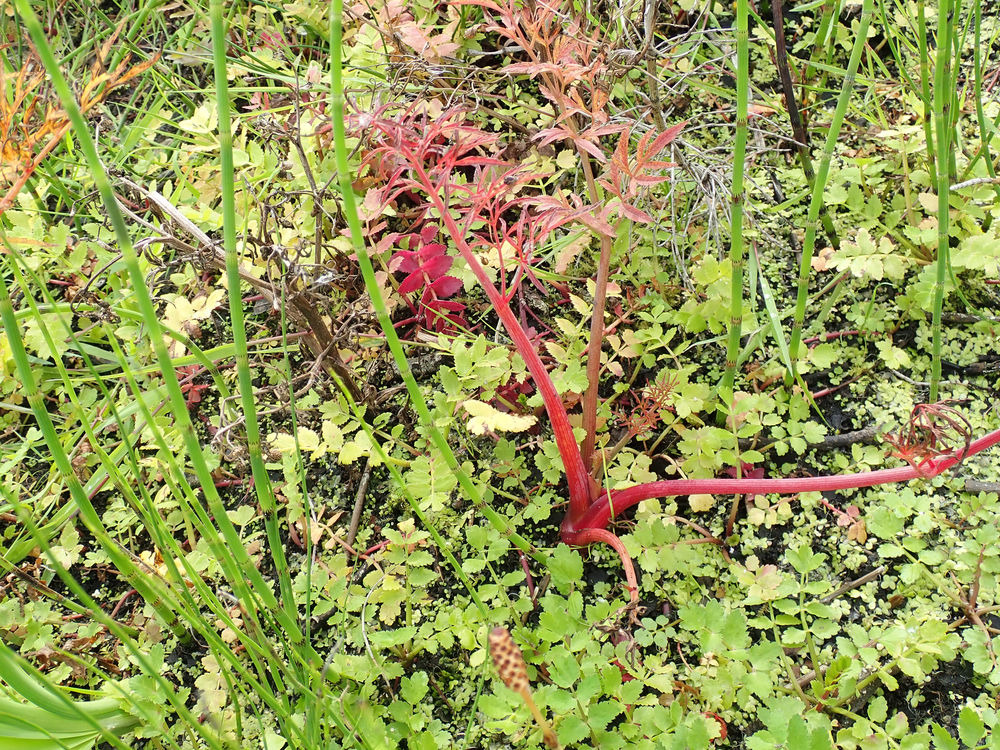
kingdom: Plantae
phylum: Tracheophyta
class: Magnoliopsida
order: Apiales
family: Apiaceae
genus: Cicuta
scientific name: Cicuta virosa
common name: Gifttyde
